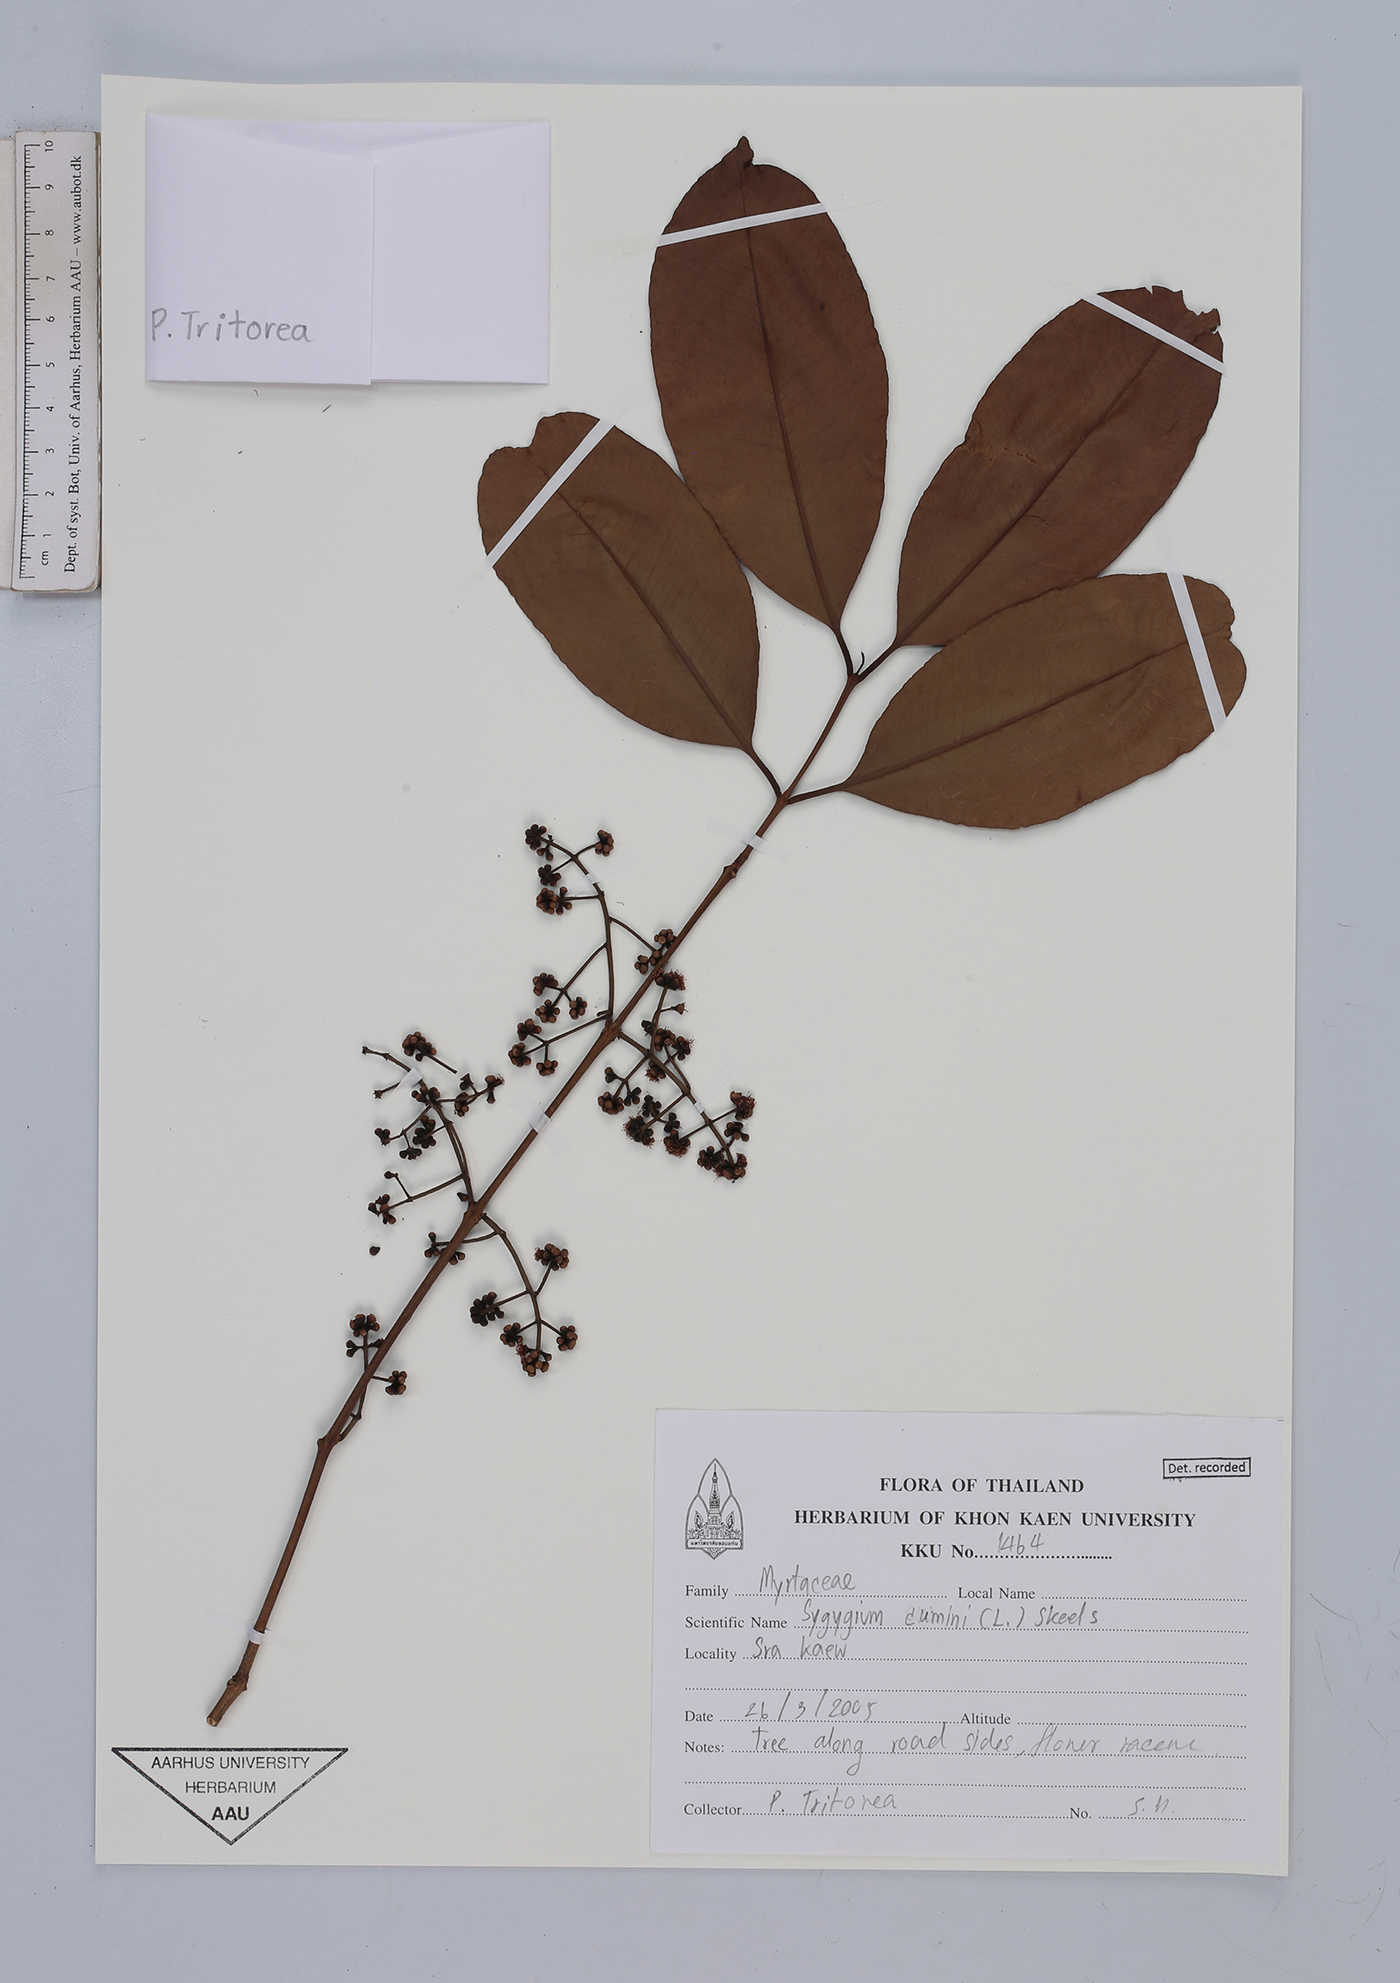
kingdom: Plantae
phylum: Tracheophyta
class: Magnoliopsida
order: Myrtales
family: Myrtaceae
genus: Syzygium
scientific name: Syzygium cumini
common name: Java plum
